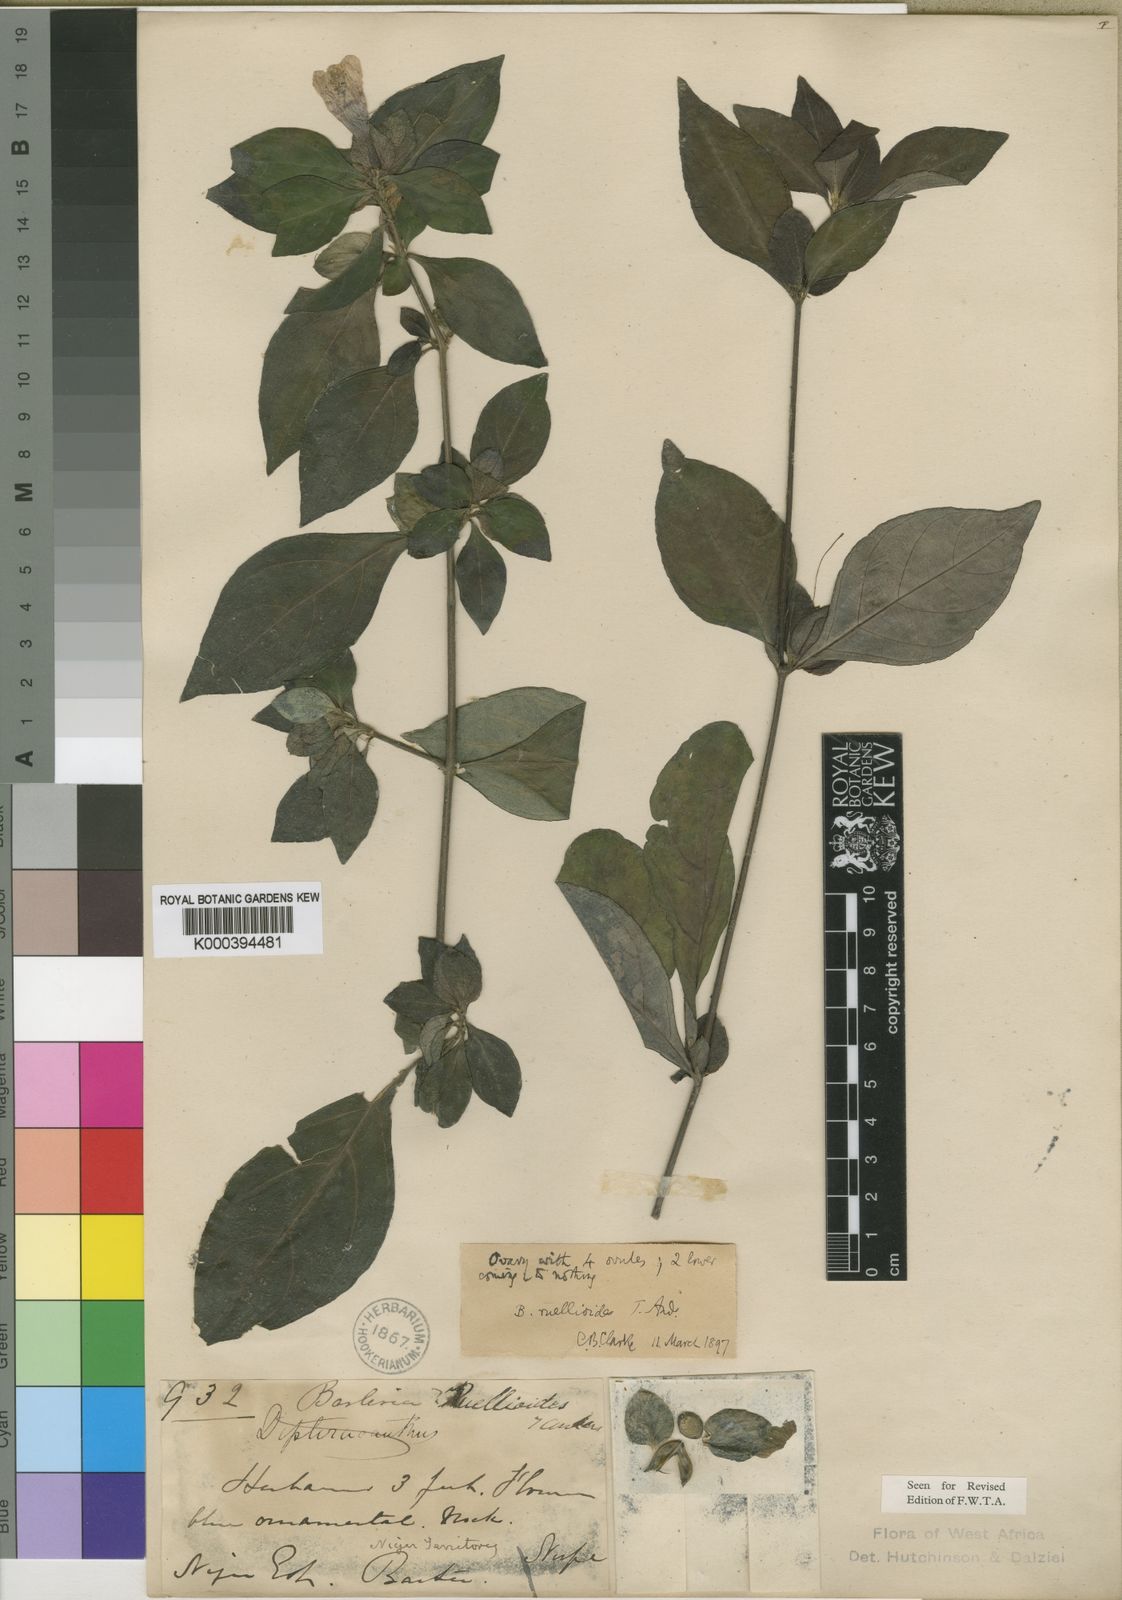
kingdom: Plantae
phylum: Tracheophyta
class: Magnoliopsida
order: Lamiales
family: Acanthaceae
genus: Barleria
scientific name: Barleria ruellioides
